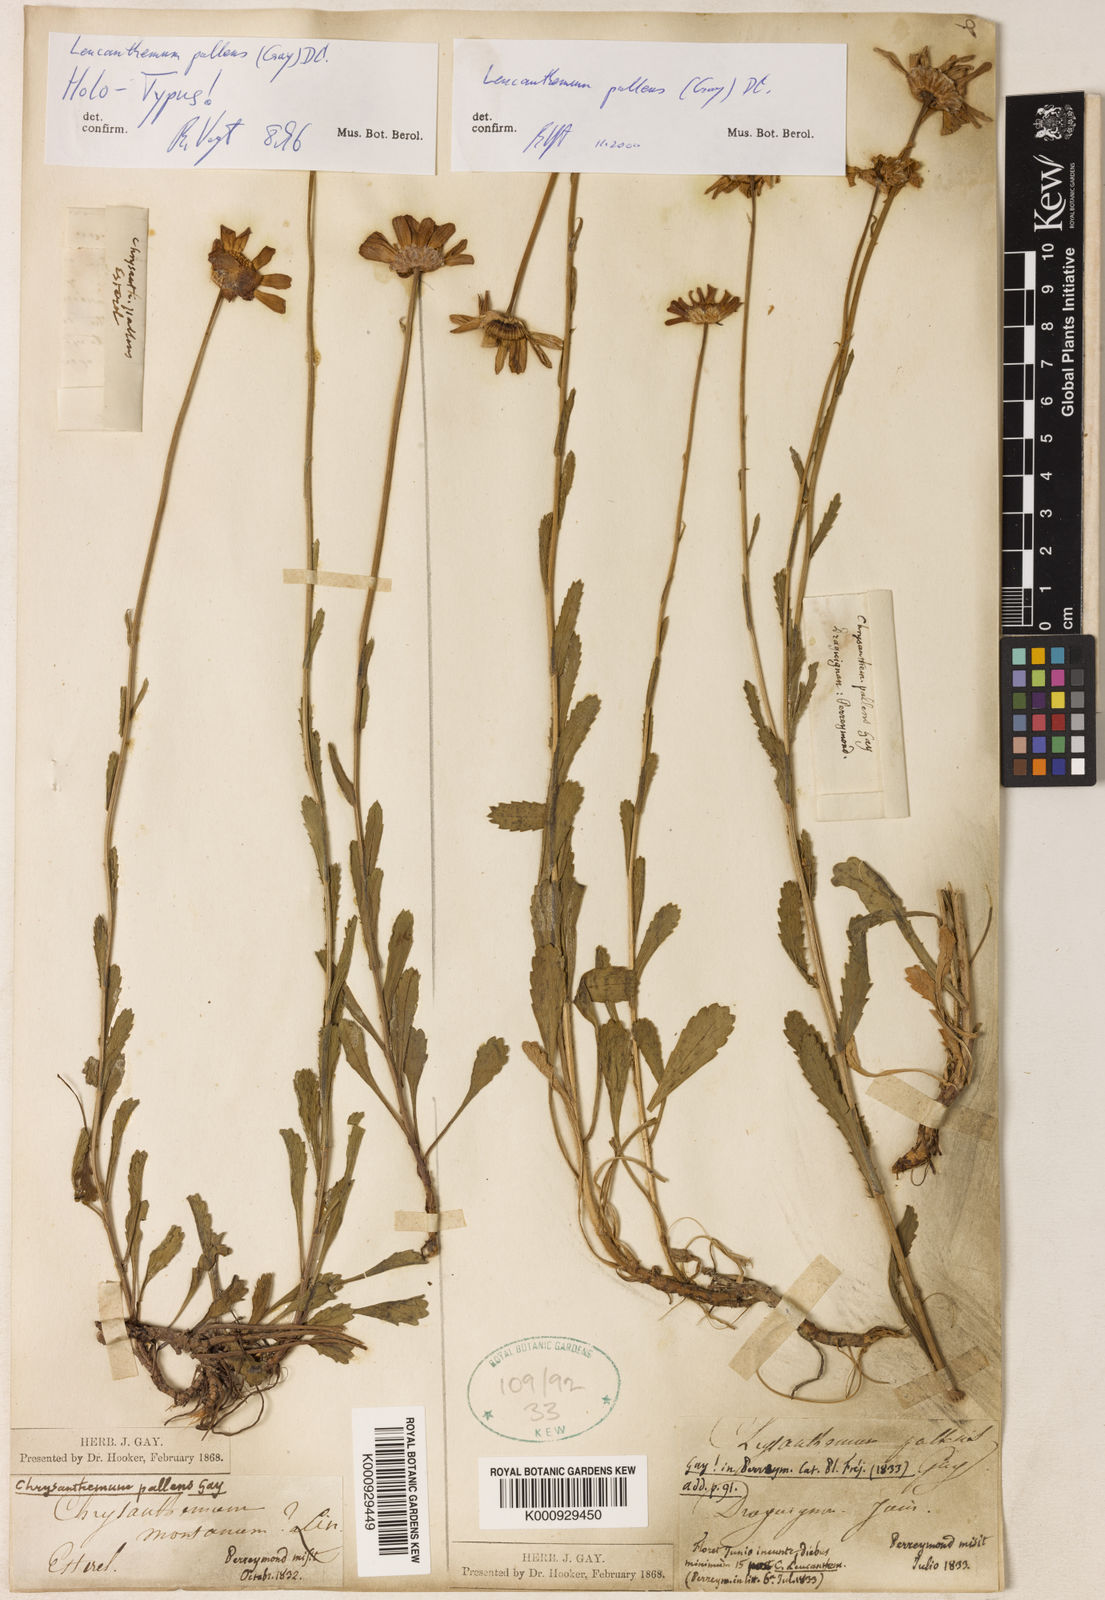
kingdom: Plantae
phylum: Tracheophyta
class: Magnoliopsida
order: Asterales
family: Asteraceae
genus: Leucanthemum
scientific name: Leucanthemum pallens
